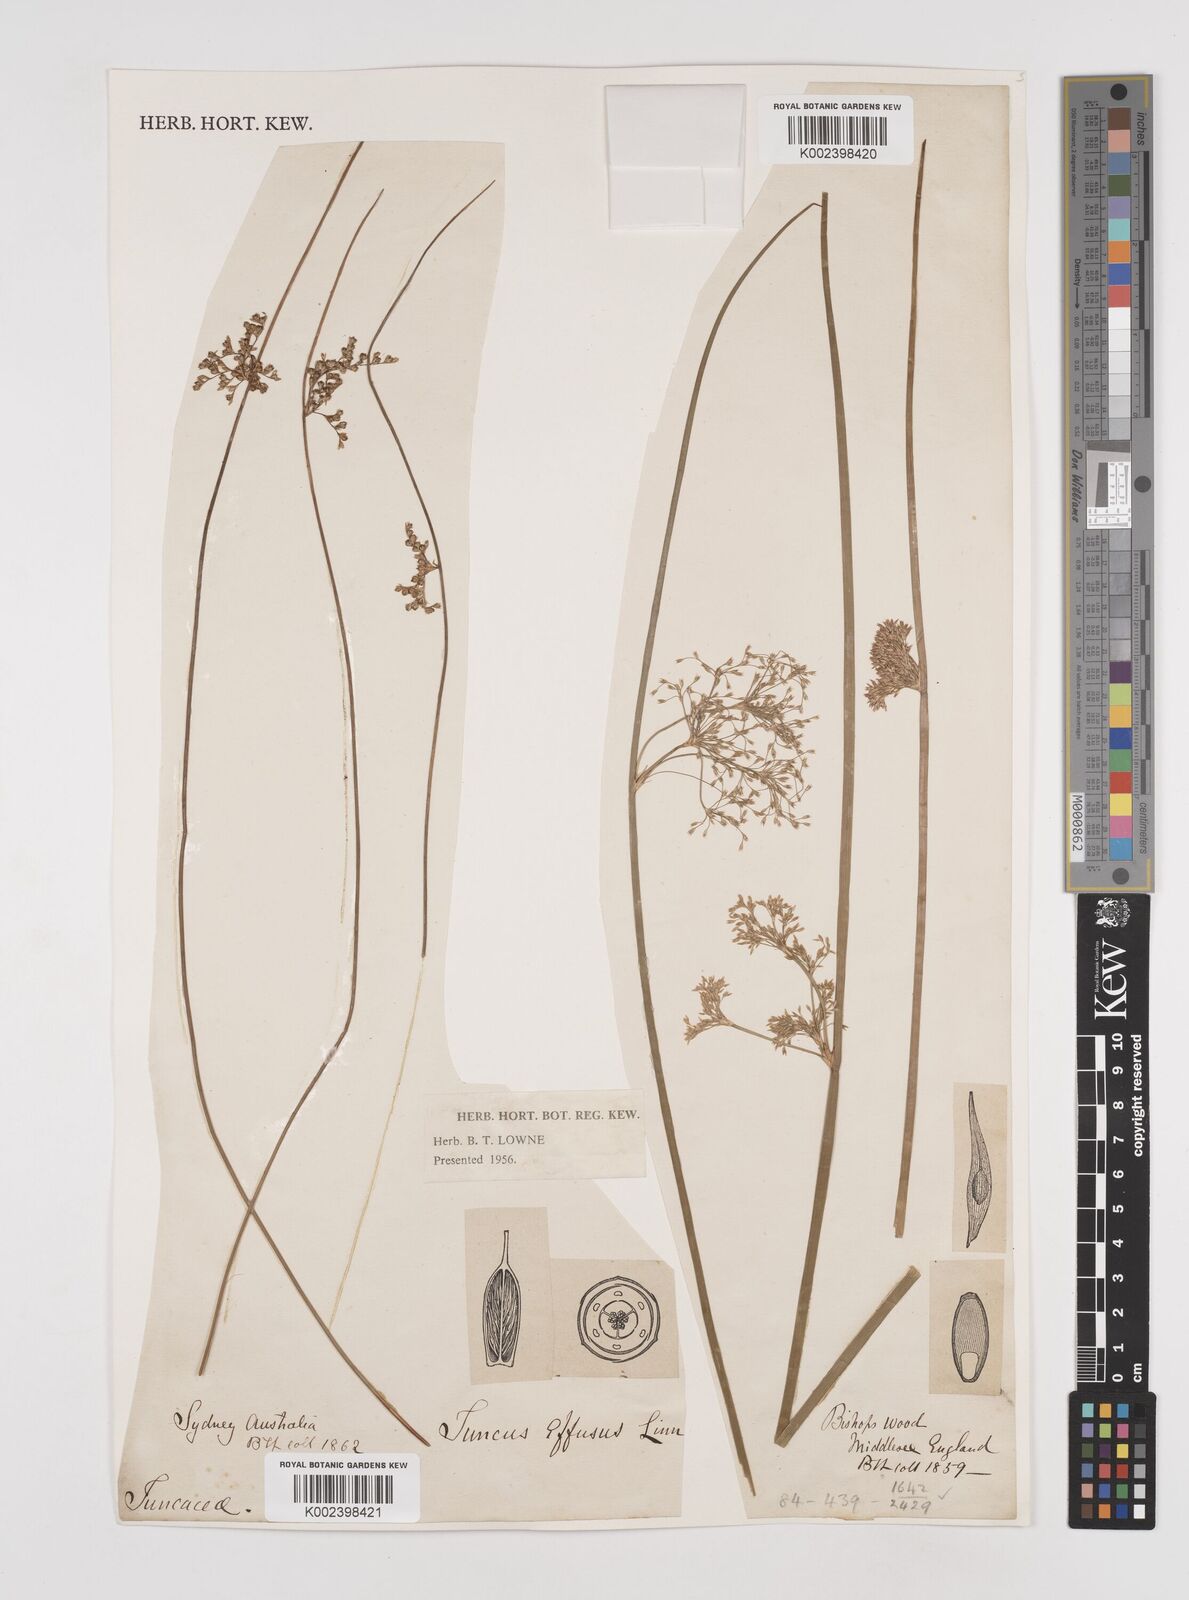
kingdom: Plantae
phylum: Tracheophyta
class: Liliopsida
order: Poales
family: Juncaceae
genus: Juncus
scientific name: Juncus effusus
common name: Soft rush
